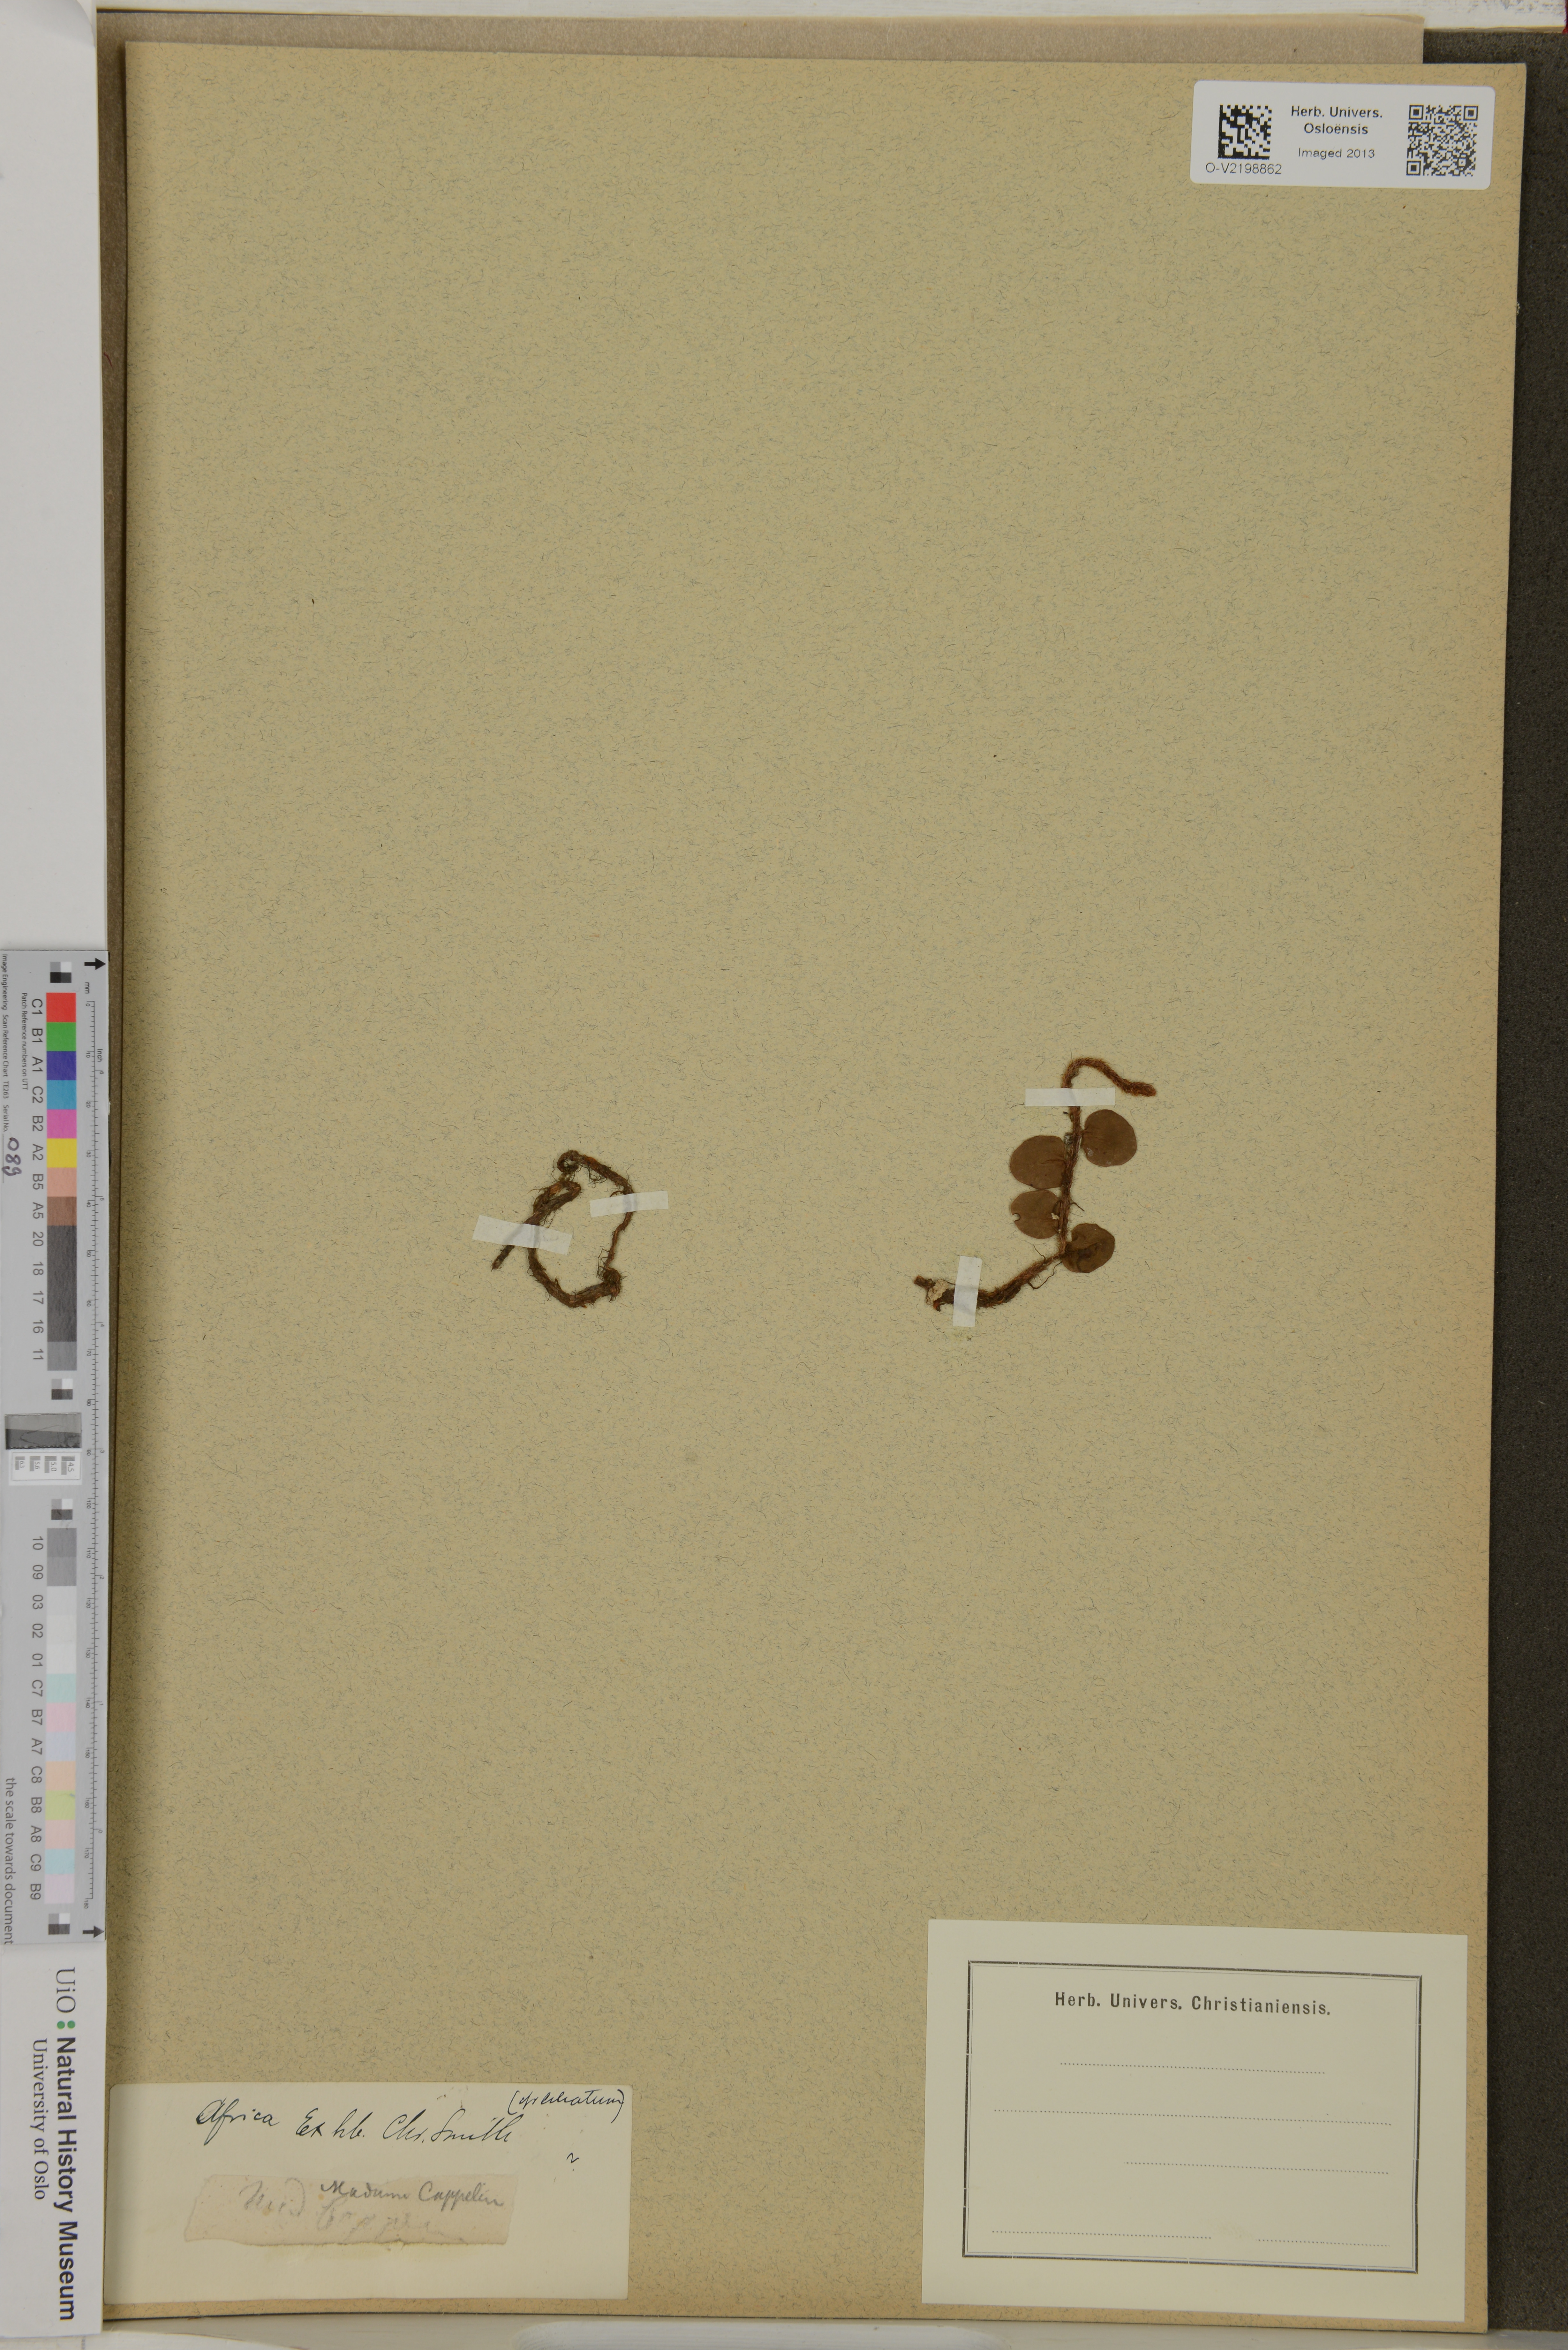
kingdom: Plantae
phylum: Tracheophyta
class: Polypodiopsida
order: Polypodiales
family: Polypodiaceae
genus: Polypodium
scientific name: Polypodium
